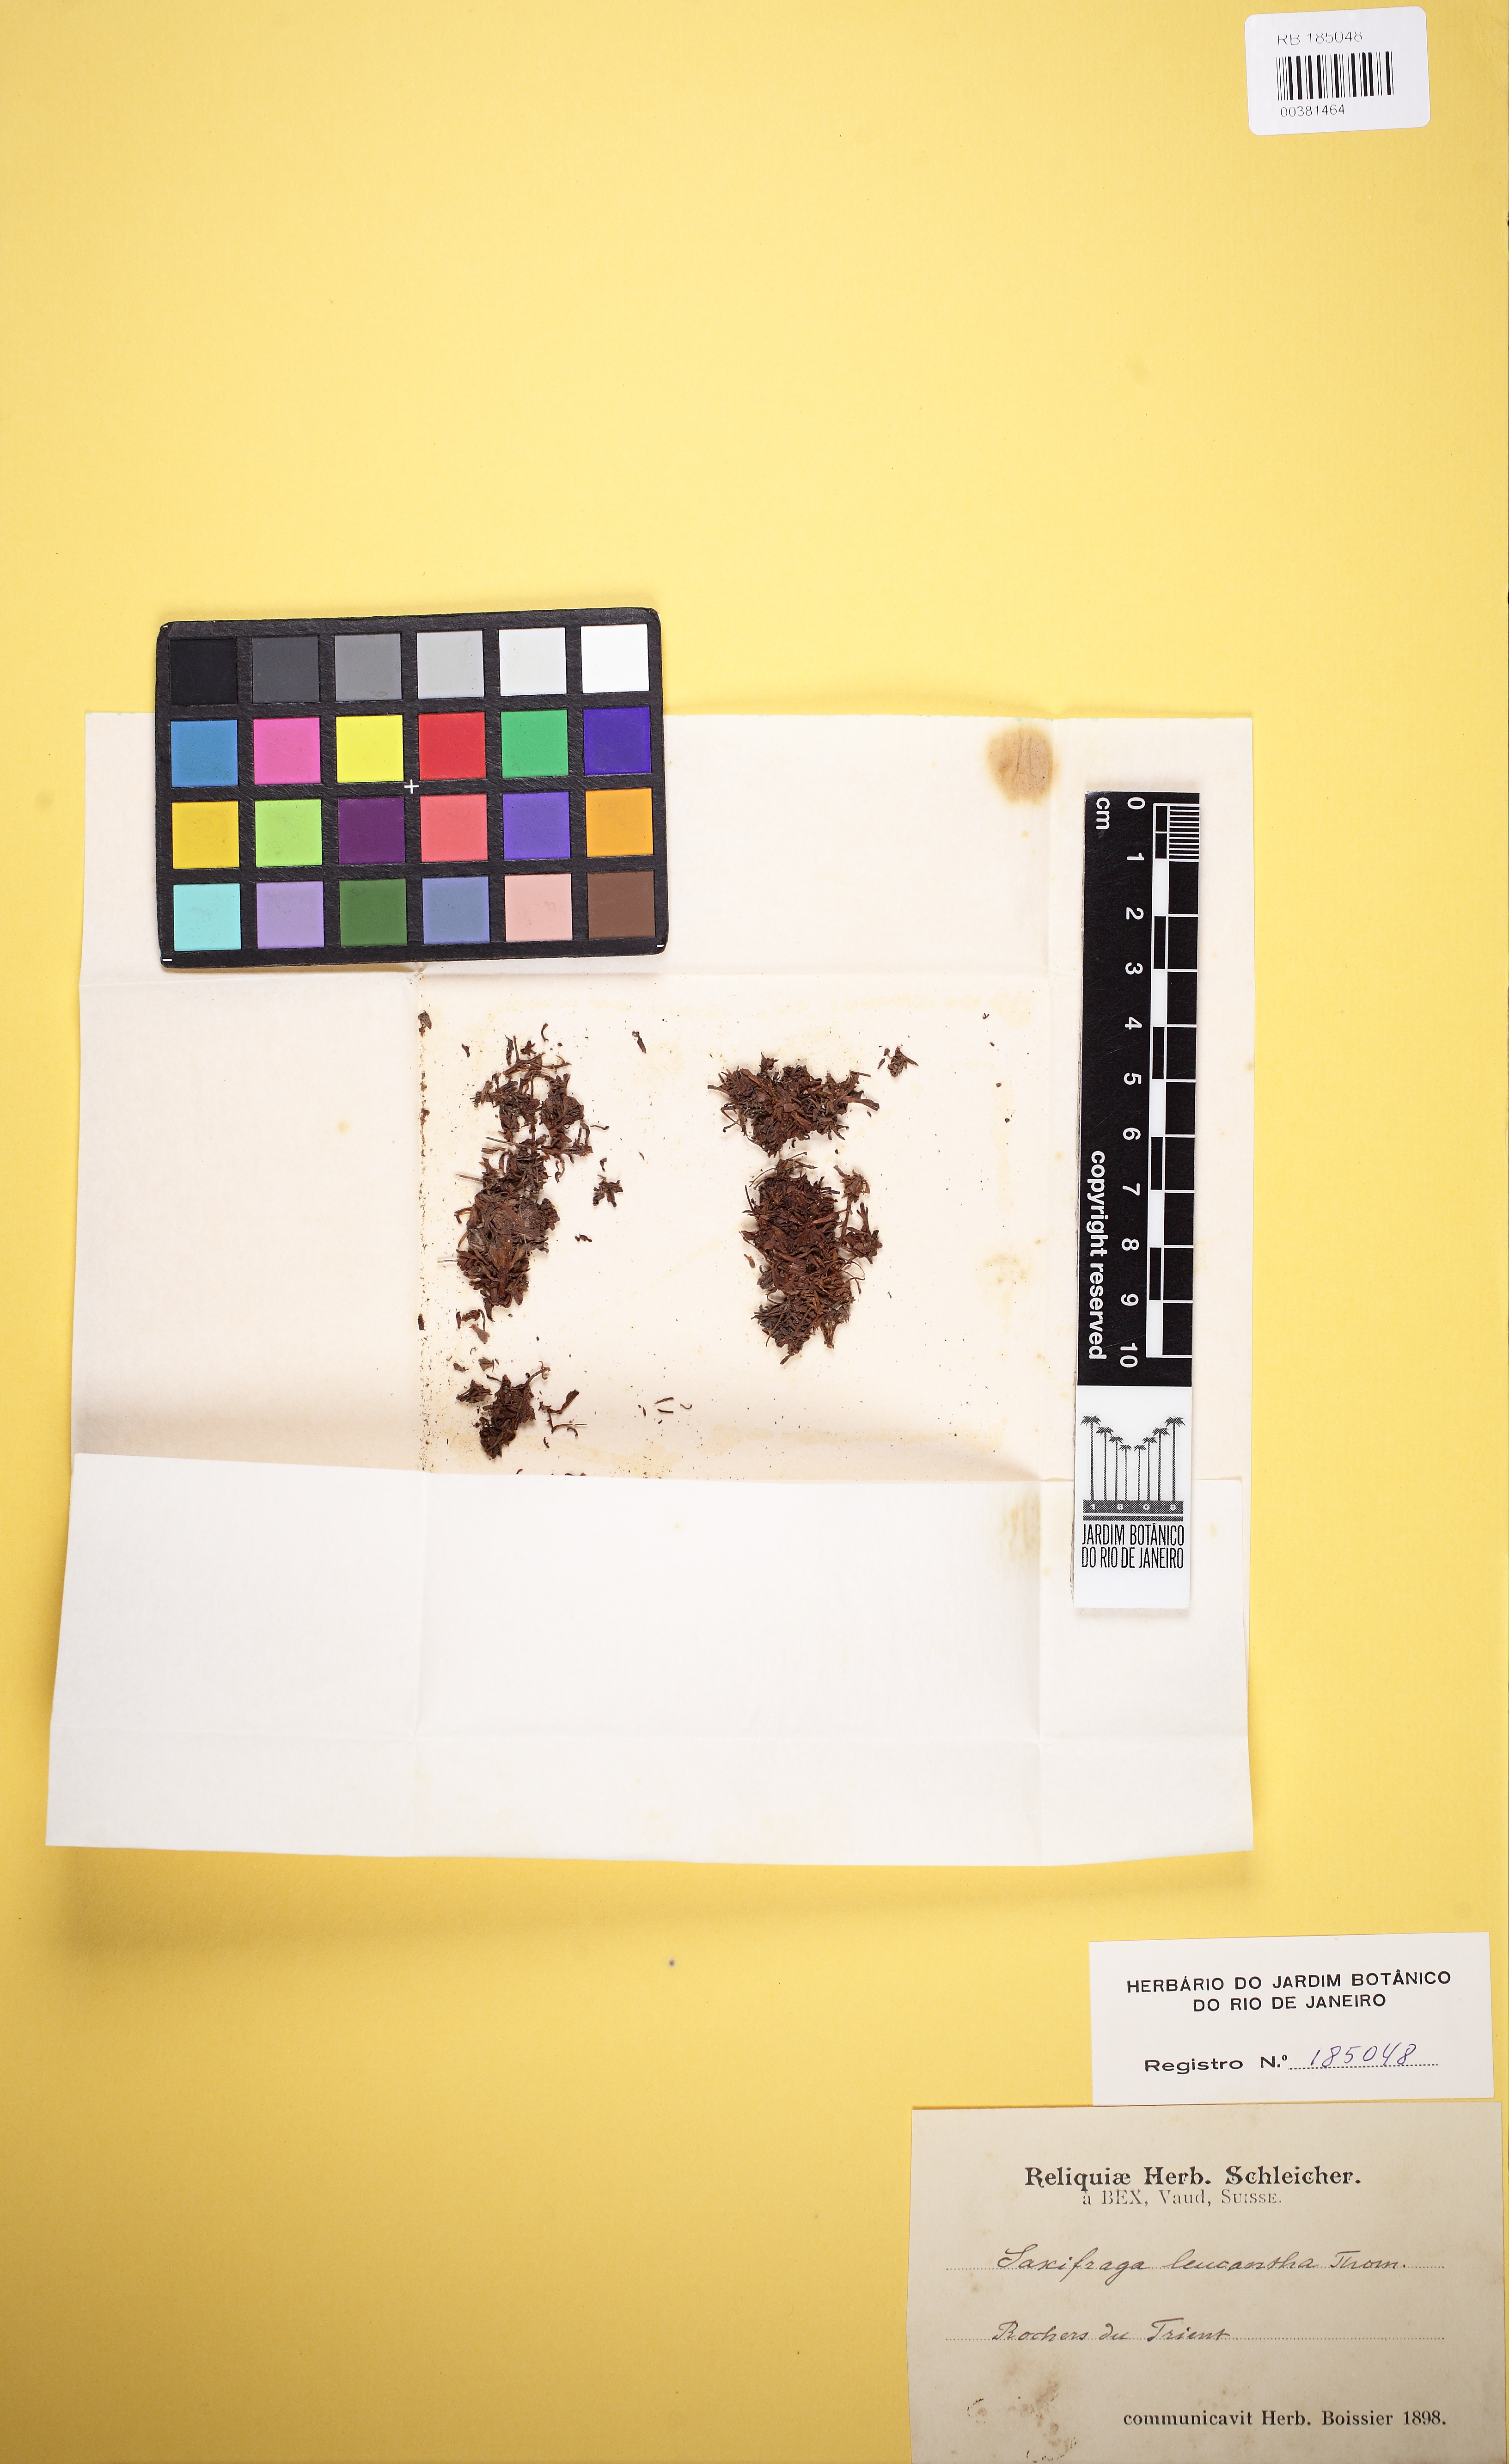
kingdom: Plantae
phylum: Tracheophyta
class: Magnoliopsida
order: Saxifragales
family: Saxifragaceae
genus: Saxifraga
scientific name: Saxifraga exarata
